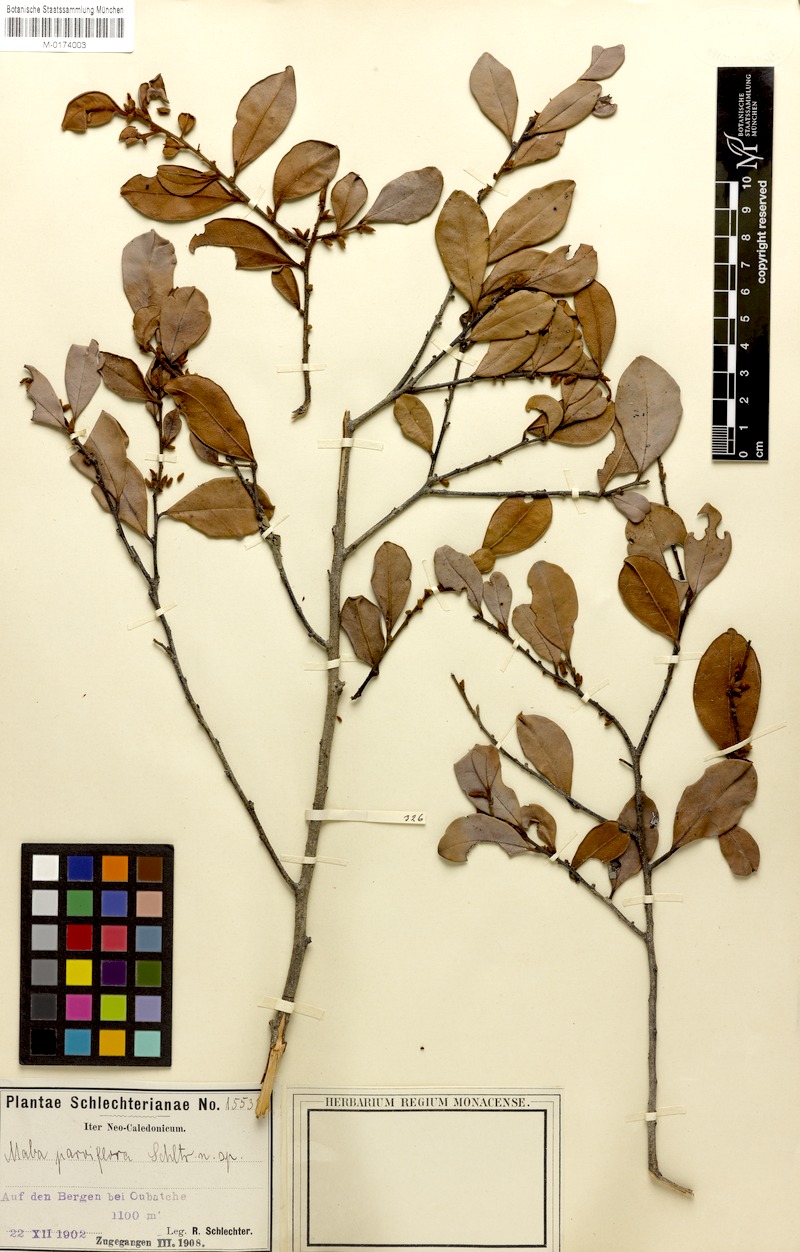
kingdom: Plantae
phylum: Tracheophyta
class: Magnoliopsida
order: Ericales
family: Ebenaceae
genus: Diospyros
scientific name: Diospyros parviflora
